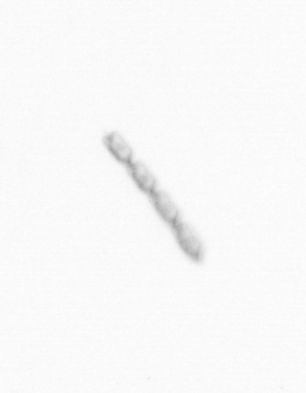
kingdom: Chromista
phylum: Ochrophyta
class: Bacillariophyceae
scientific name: Bacillariophyceae
